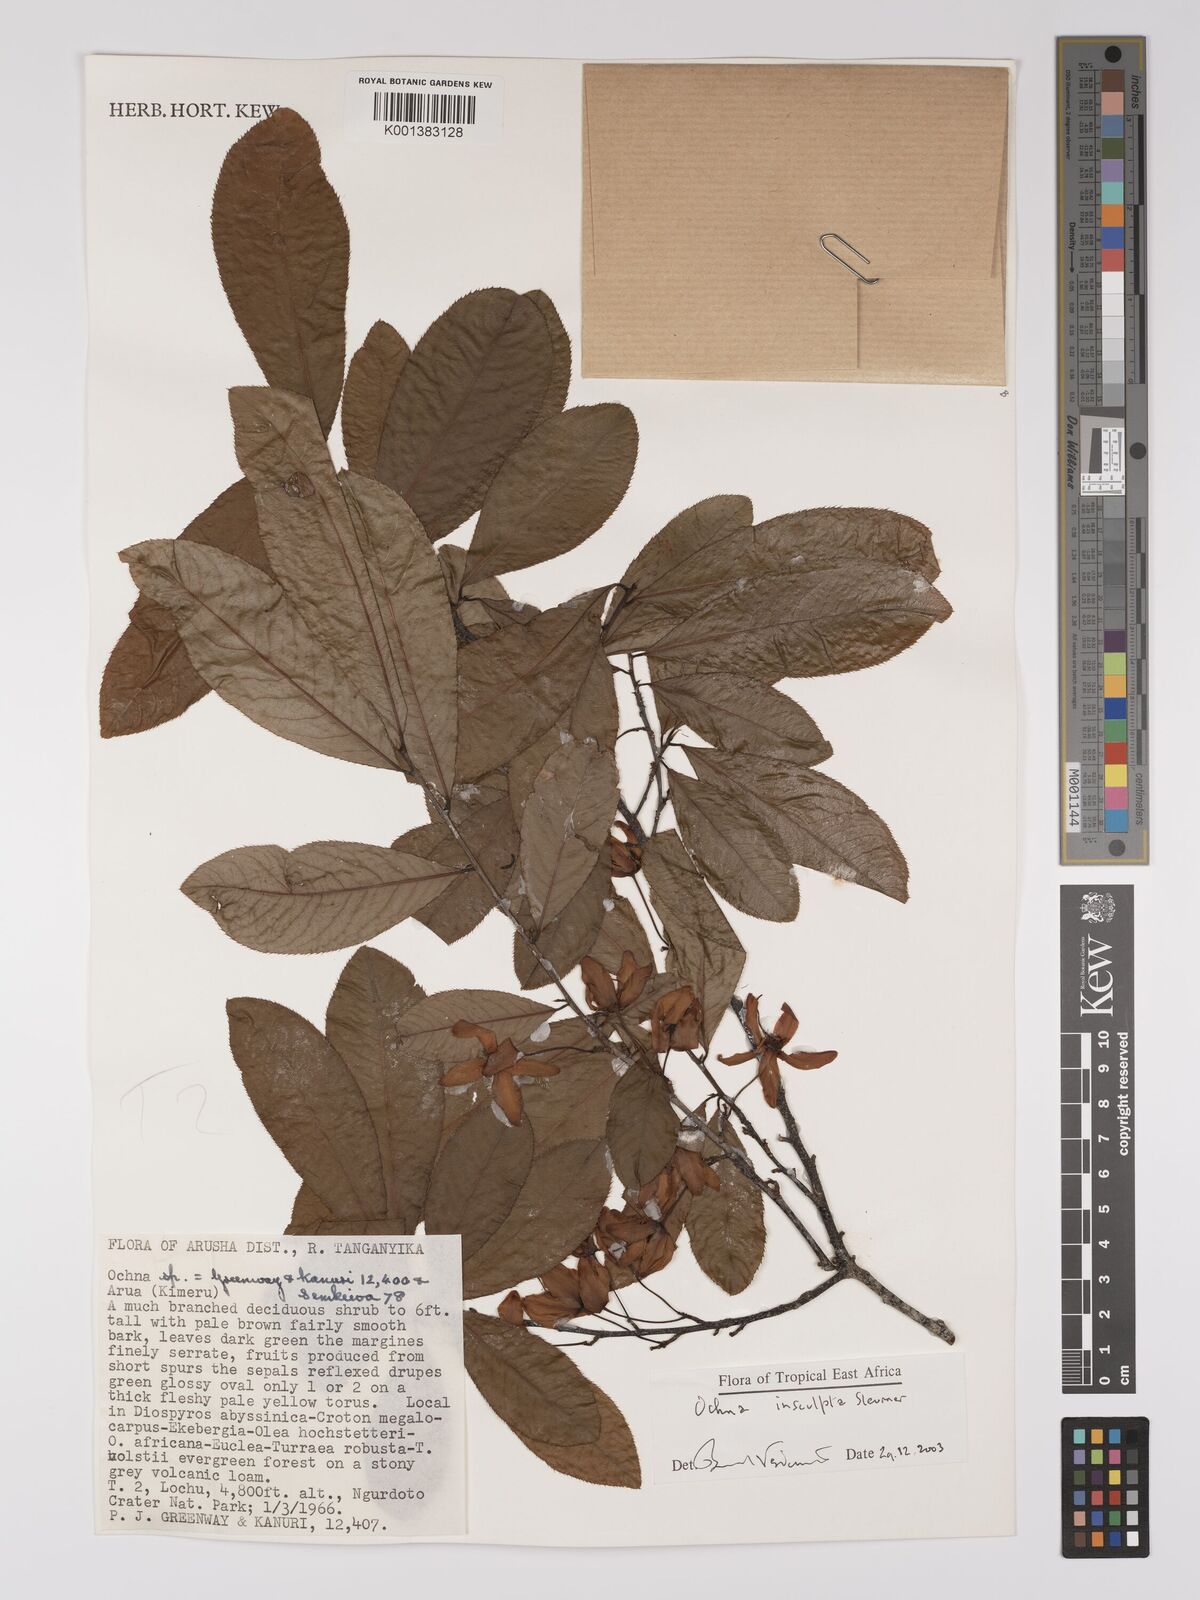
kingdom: Plantae
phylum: Tracheophyta
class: Magnoliopsida
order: Malpighiales
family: Ochnaceae
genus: Ochna
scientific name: Ochna insculpta
